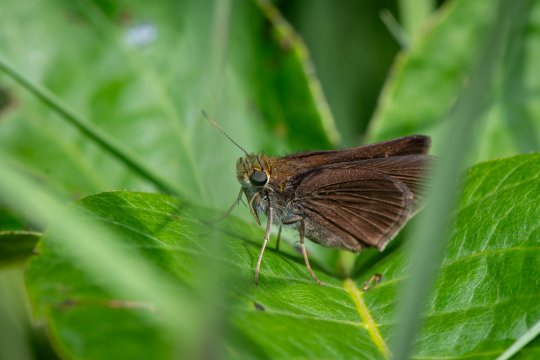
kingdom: Animalia
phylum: Arthropoda
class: Insecta
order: Lepidoptera
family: Hesperiidae
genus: Euphyes
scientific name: Euphyes vestris
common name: Dun Skipper
